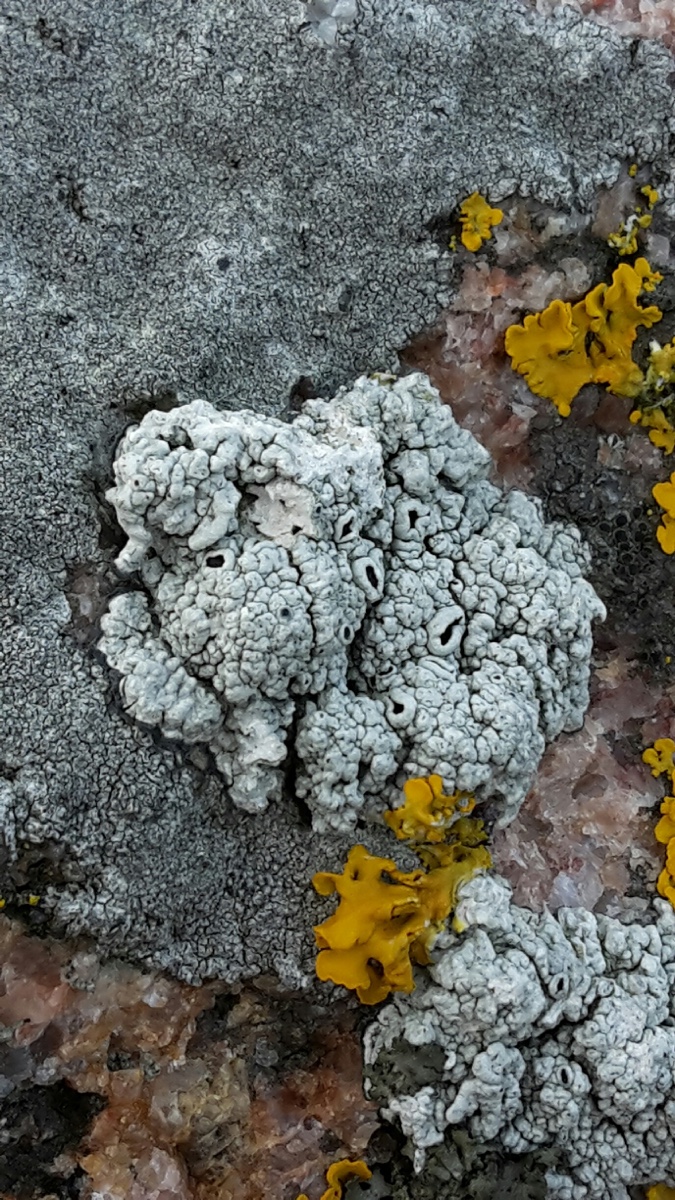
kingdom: Fungi
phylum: Ascomycota
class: Lecanoromycetes
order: Lecanorales
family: Tephromelataceae
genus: Tephromela
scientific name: Tephromela atra
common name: sortfrugtet kantskivelav
